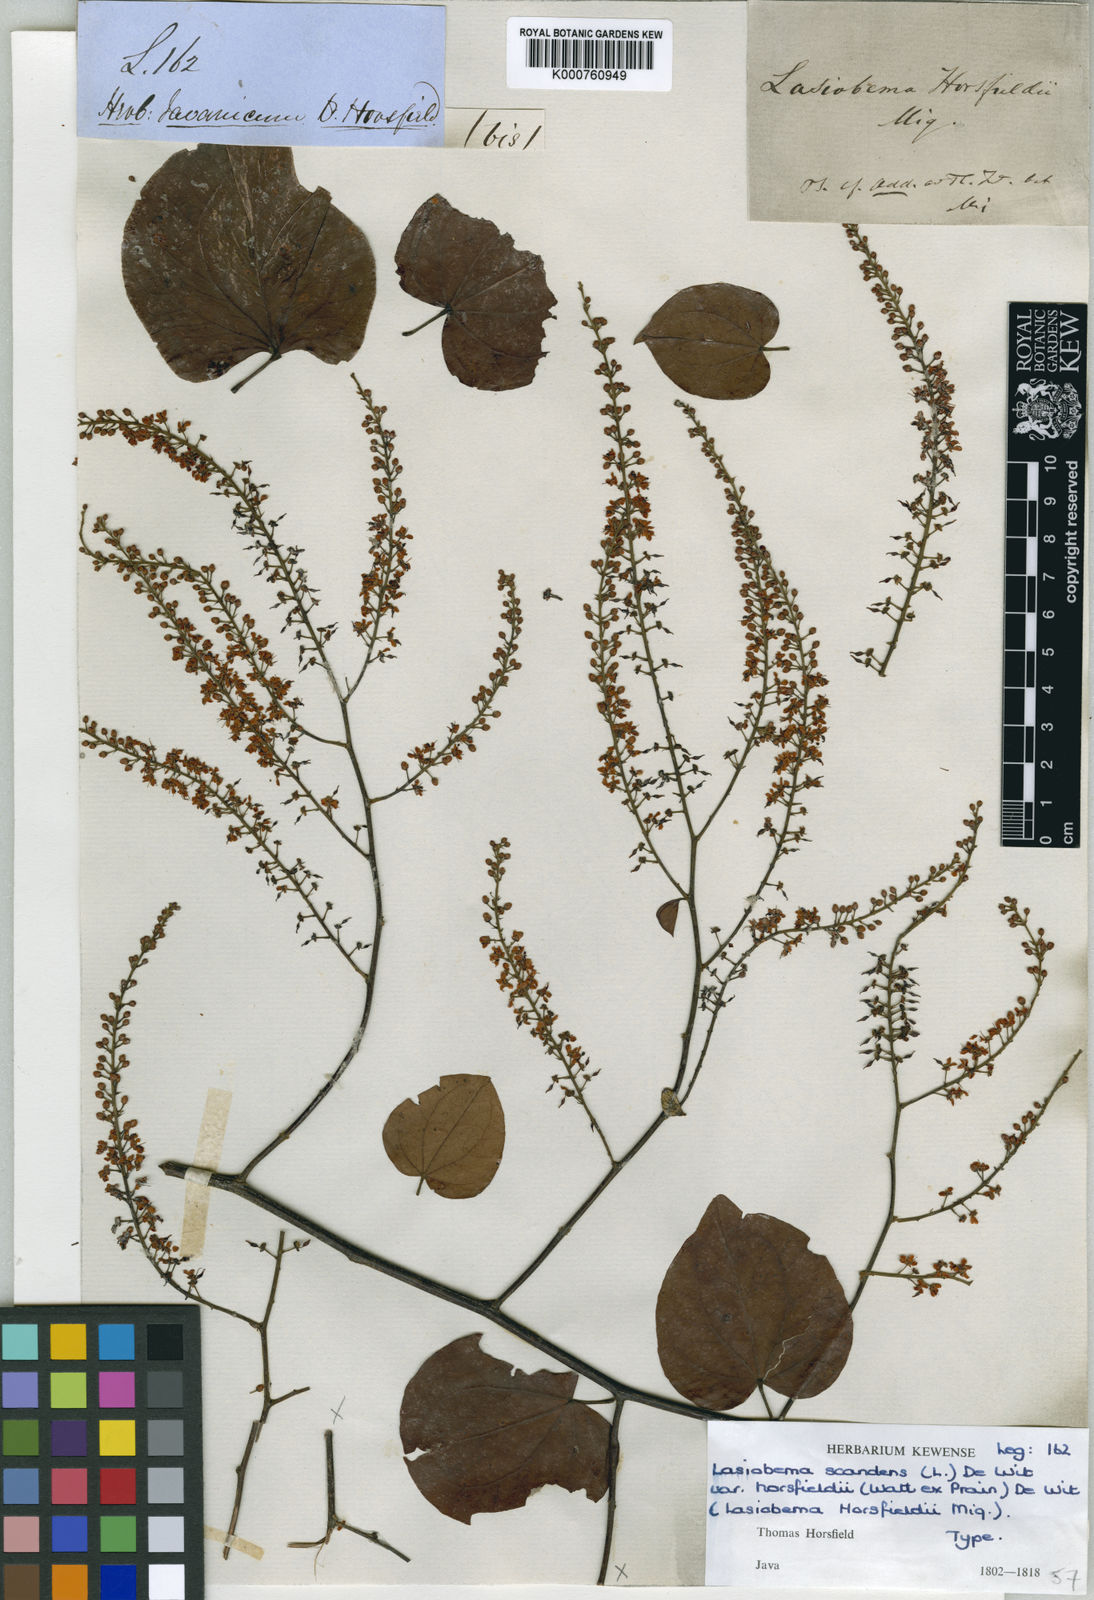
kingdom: Plantae
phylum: Tracheophyta
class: Magnoliopsida
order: Fabales
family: Fabaceae
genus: Phanera
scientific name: Phanera scandens
